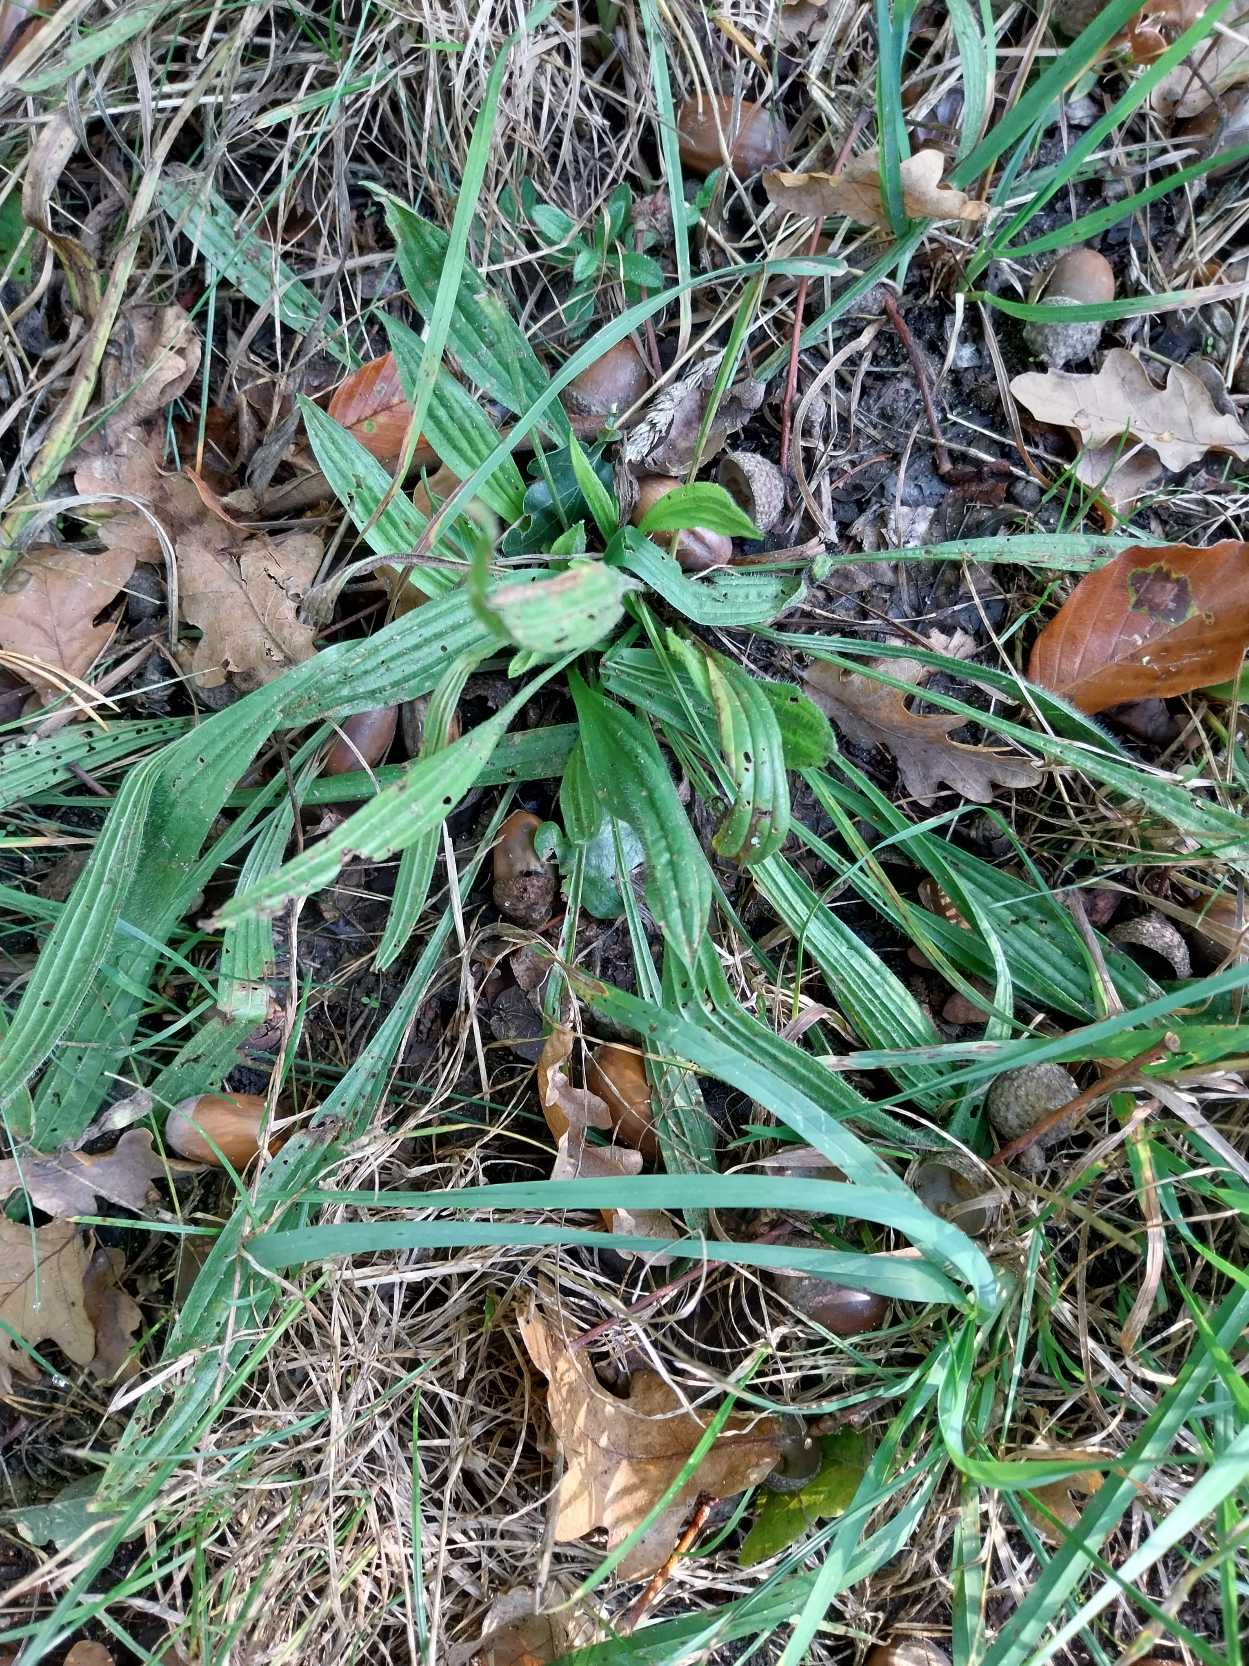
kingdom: Plantae
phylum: Tracheophyta
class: Magnoliopsida
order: Lamiales
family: Plantaginaceae
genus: Plantago
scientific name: Plantago lanceolata
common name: Lancet-vejbred
